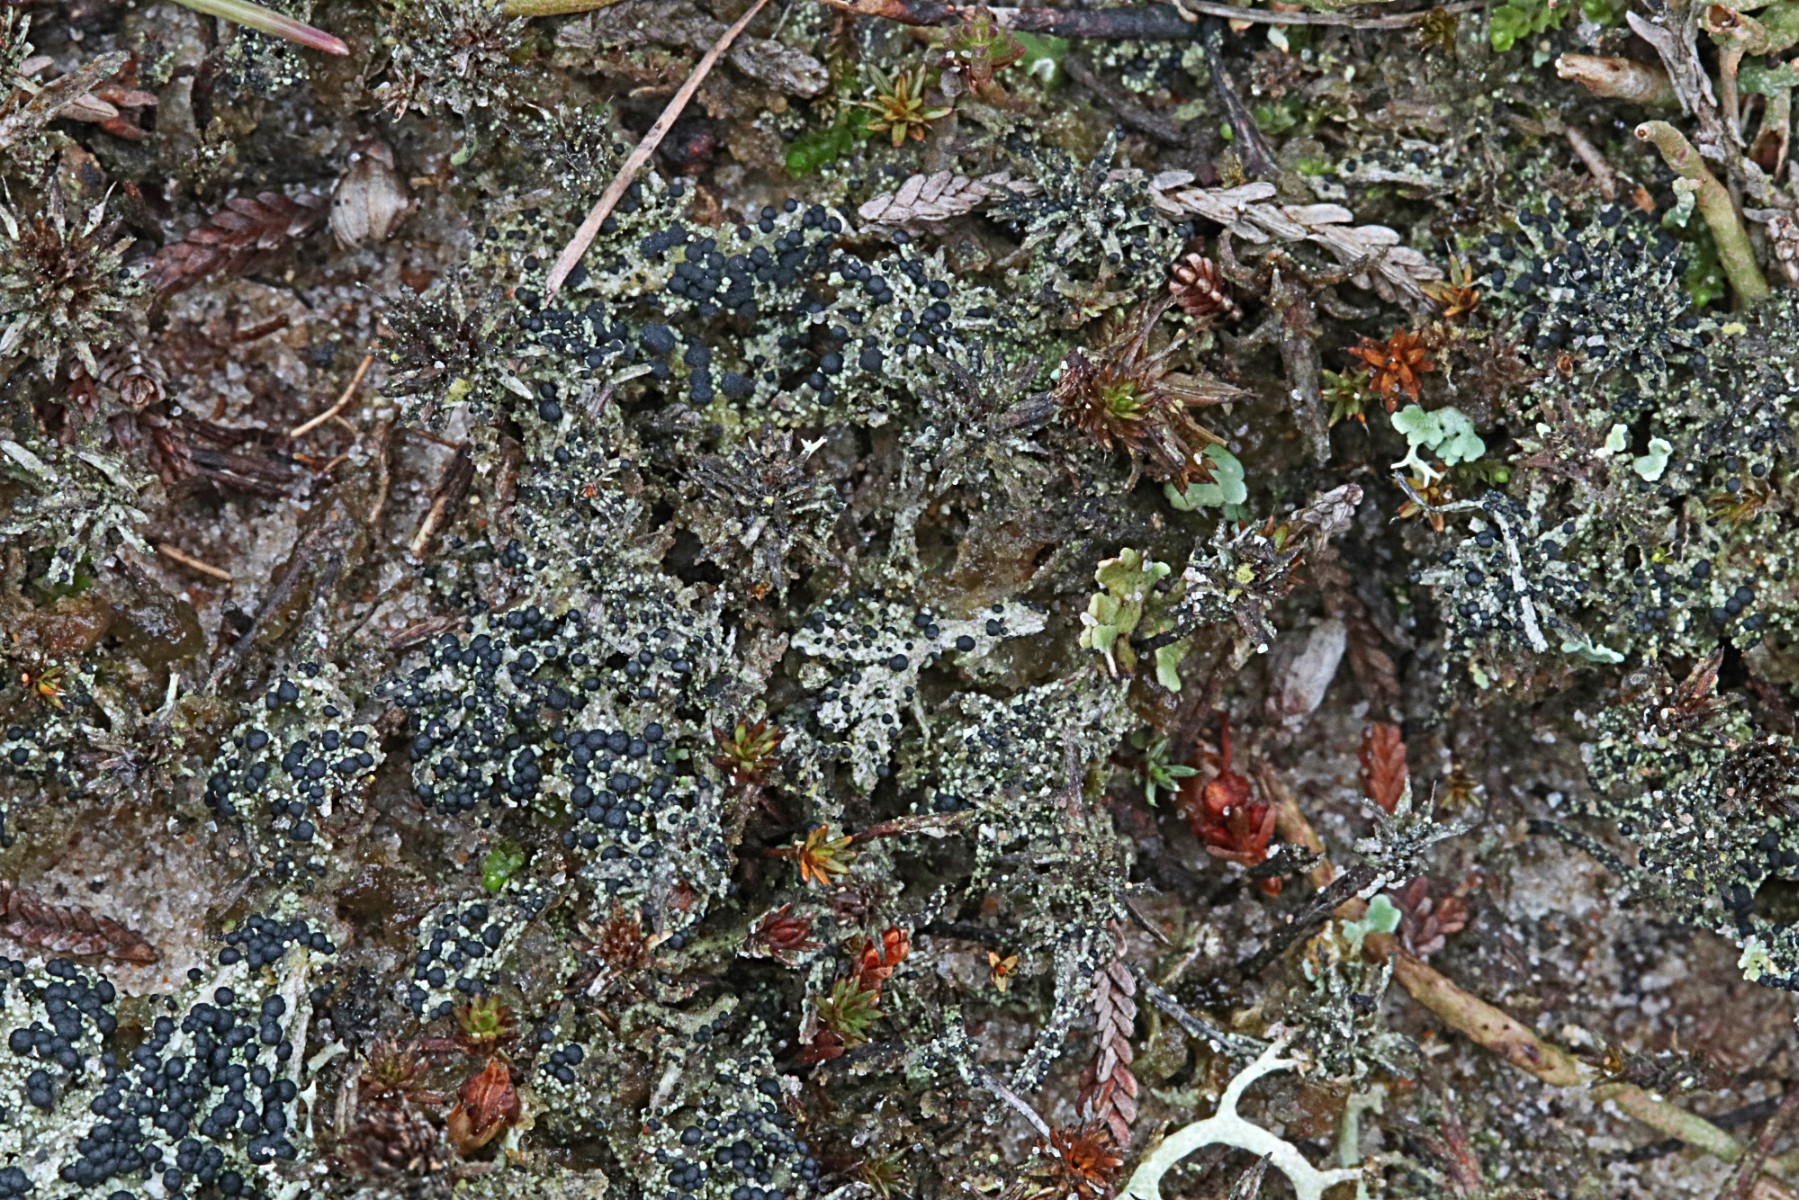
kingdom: Fungi
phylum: Ascomycota
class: Lecanoromycetes
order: Lecanorales
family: Byssolomataceae
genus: Micarea
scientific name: Micarea lignaria
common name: tørve-knaplav
